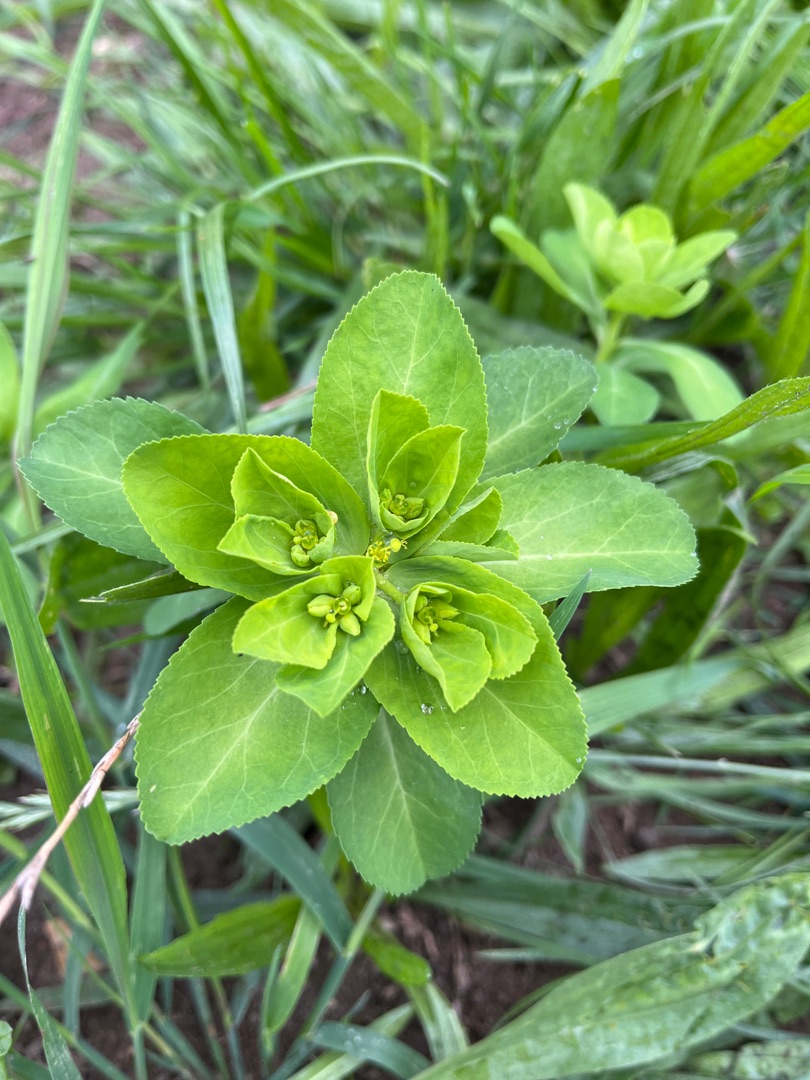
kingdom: Plantae
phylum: Tracheophyta
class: Magnoliopsida
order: Malpighiales
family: Euphorbiaceae
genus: Euphorbia
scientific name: Euphorbia helioscopia
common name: Skærm-vortemælk
